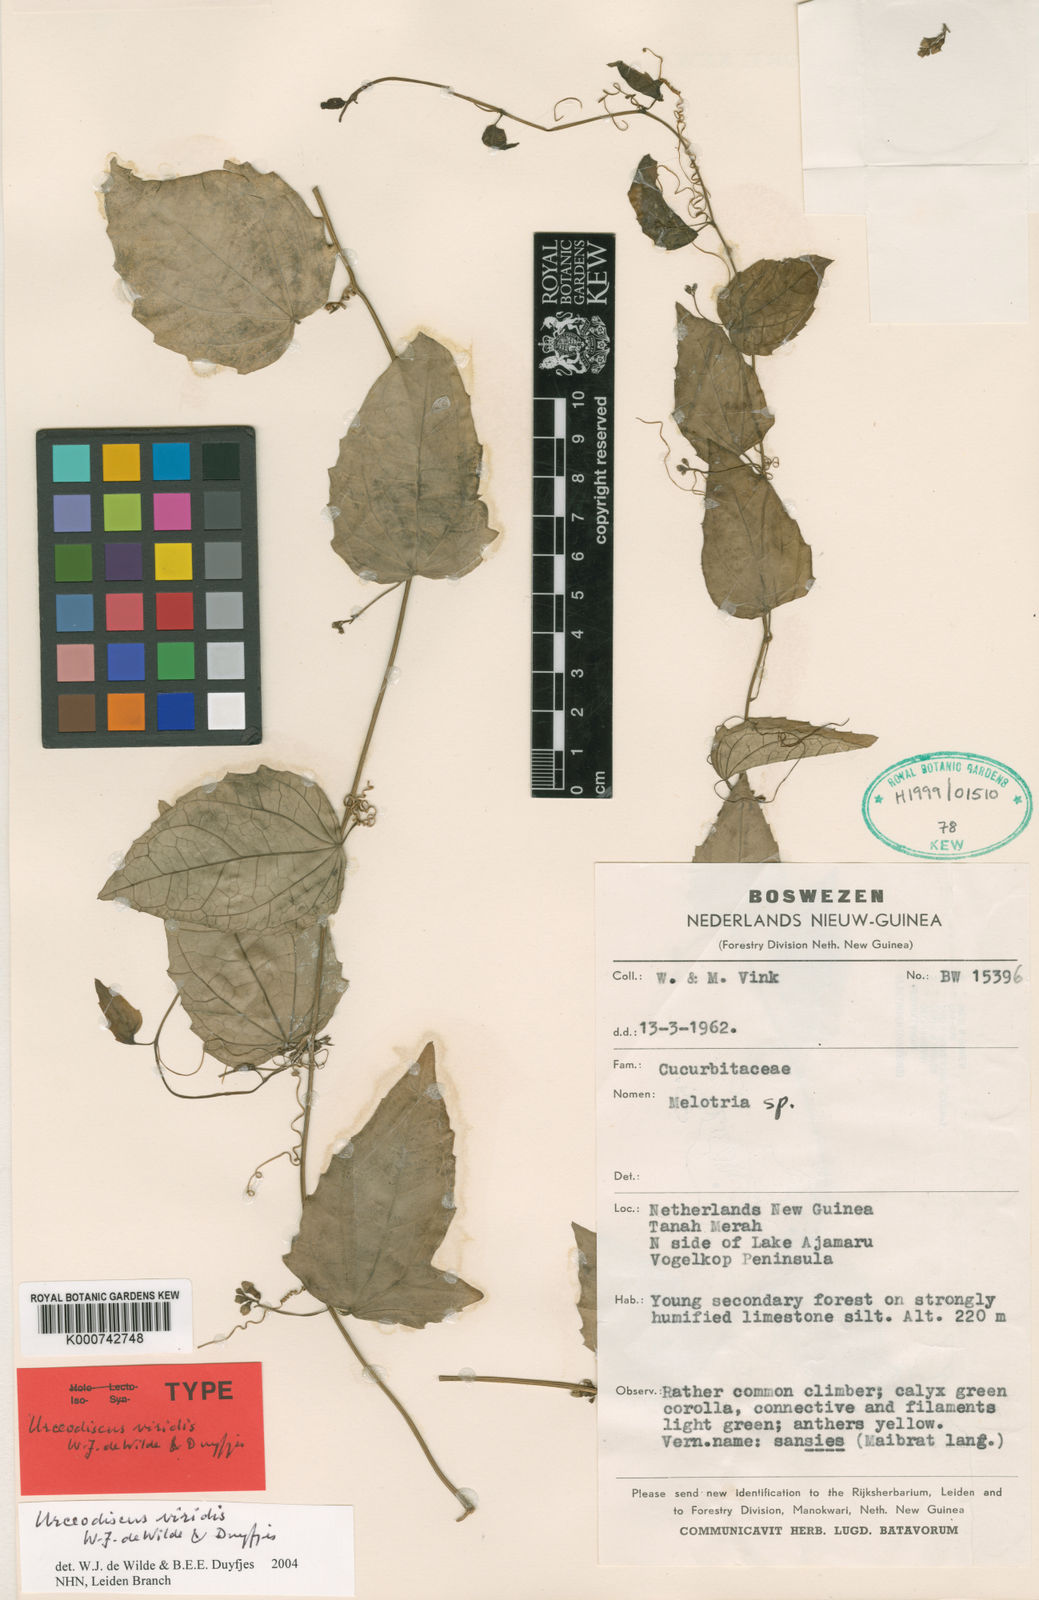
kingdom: Plantae
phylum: Tracheophyta
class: Magnoliopsida
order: Cucurbitales
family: Cucurbitaceae
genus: Papuasicyos
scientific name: Papuasicyos viridis
